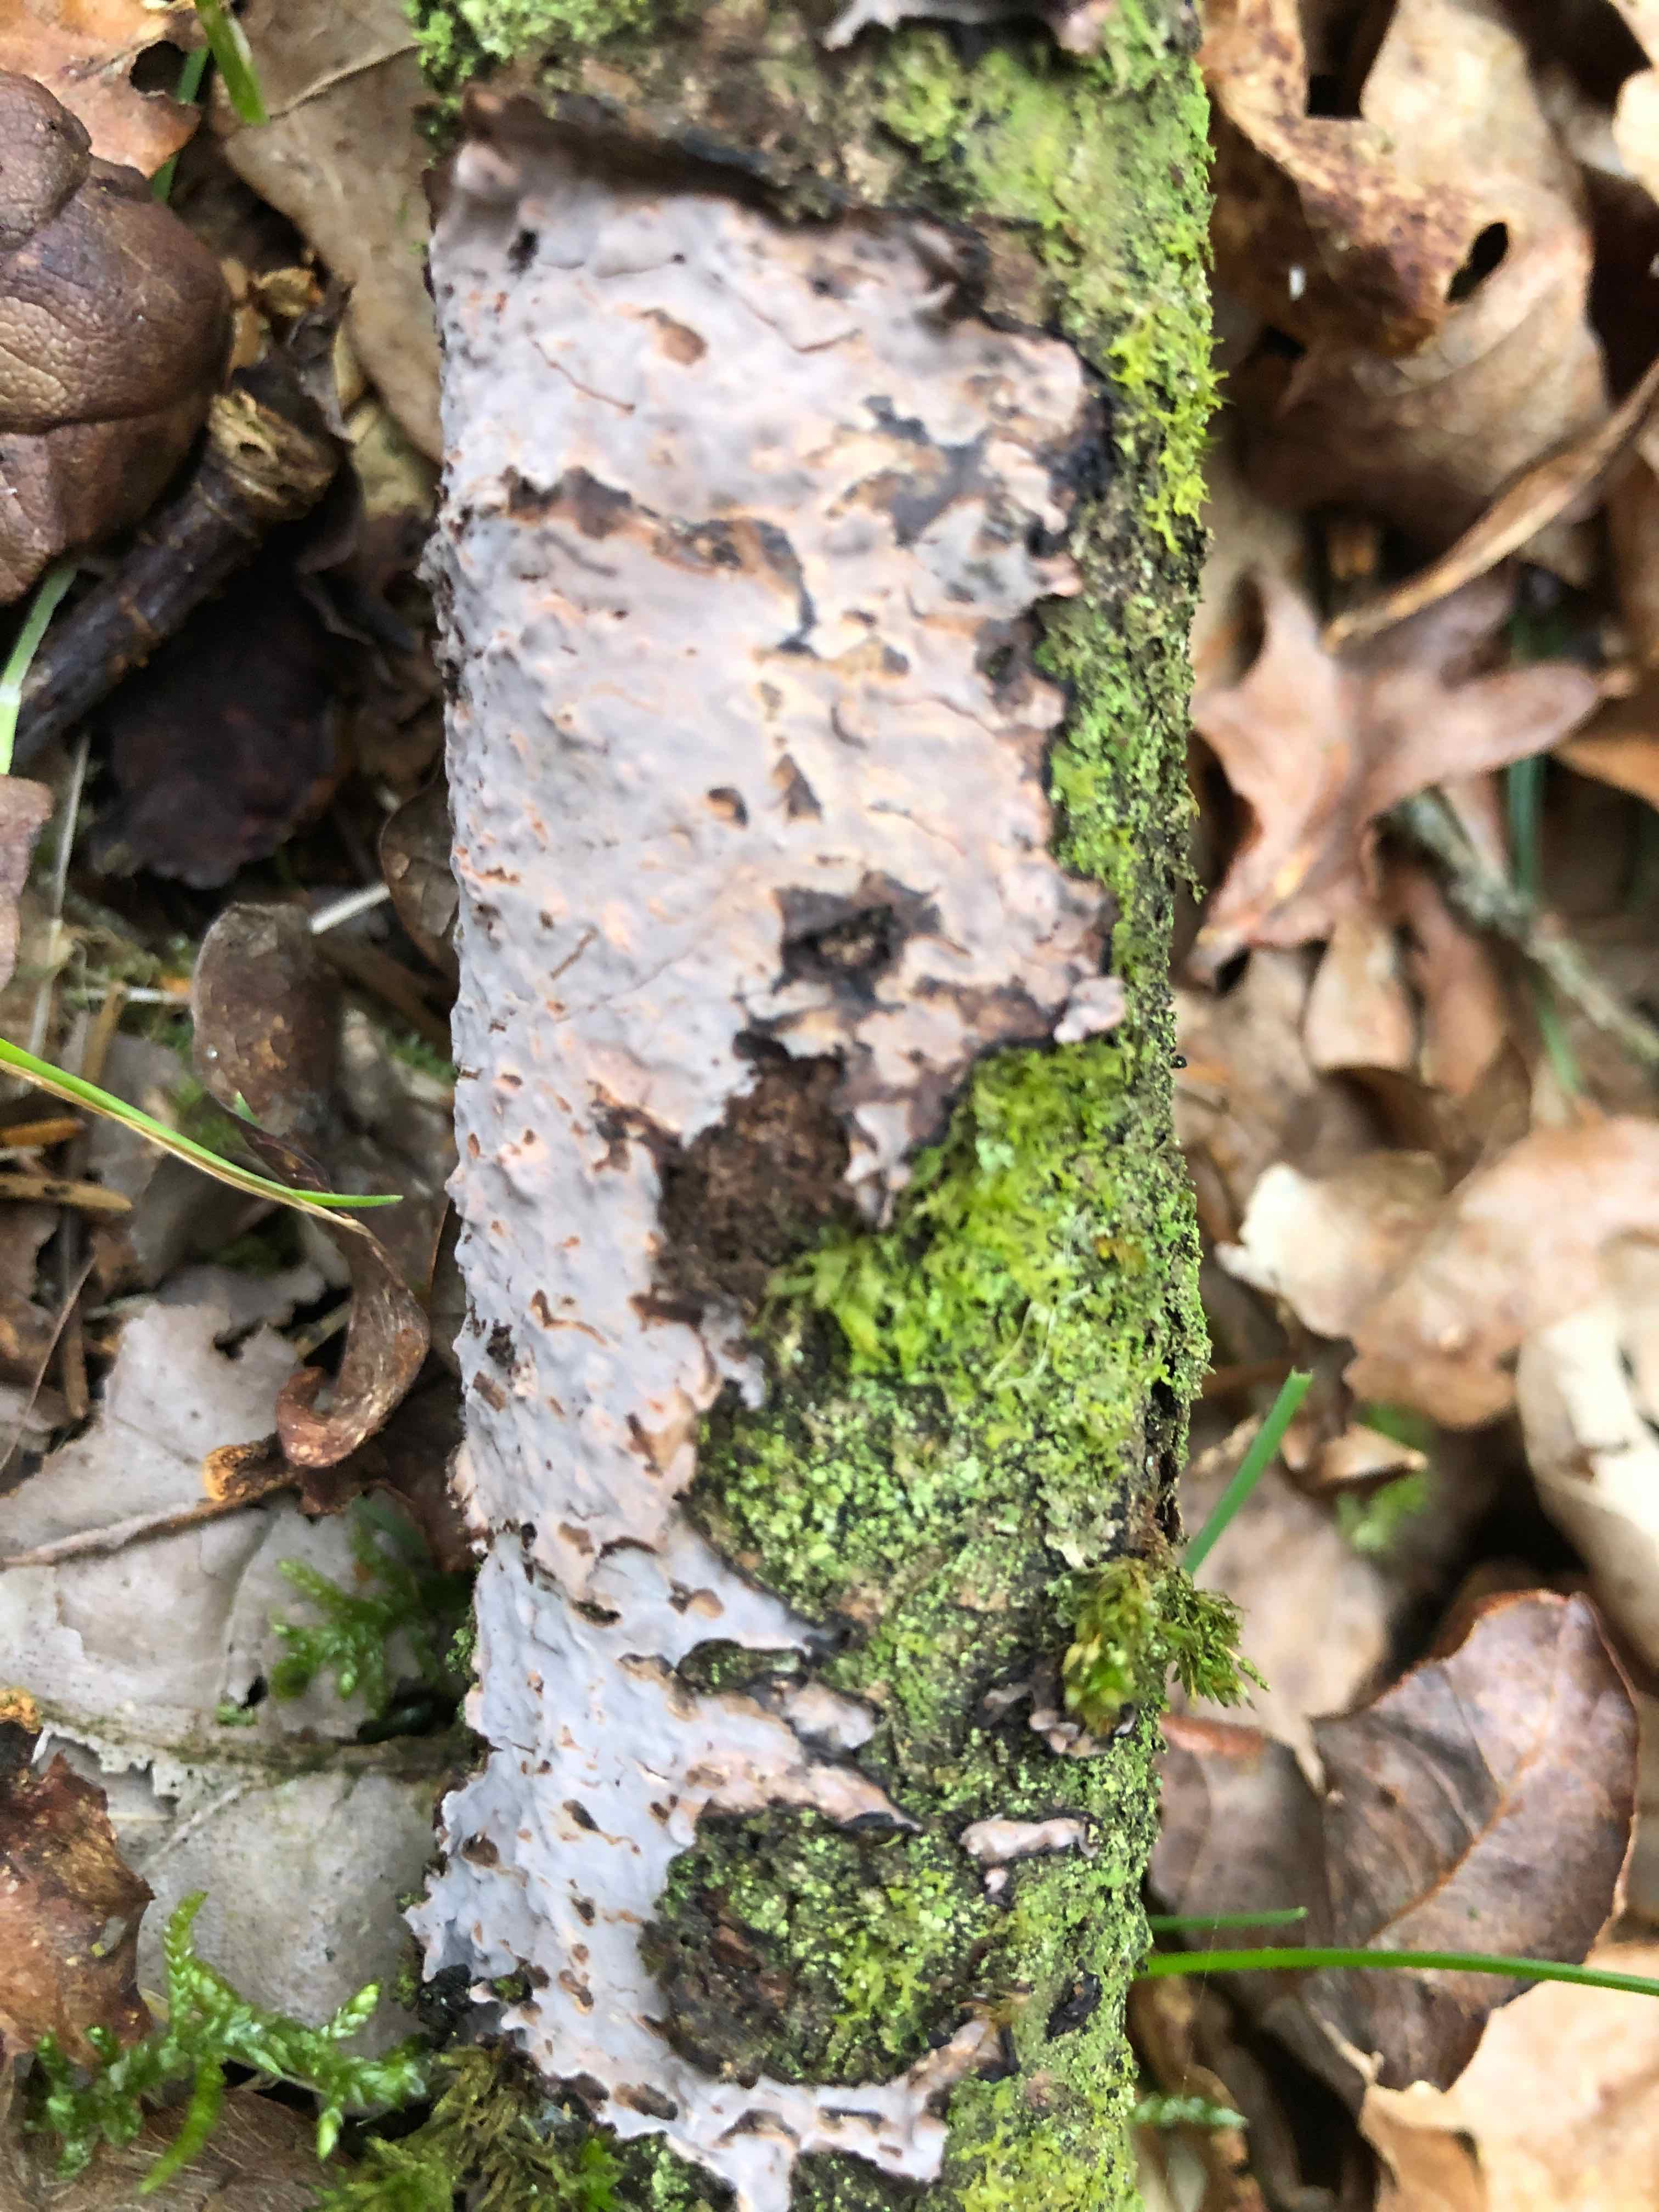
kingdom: Fungi
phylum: Basidiomycota
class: Agaricomycetes
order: Russulales
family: Peniophoraceae
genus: Peniophora
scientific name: Peniophora quercina
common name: ege-voksskind
